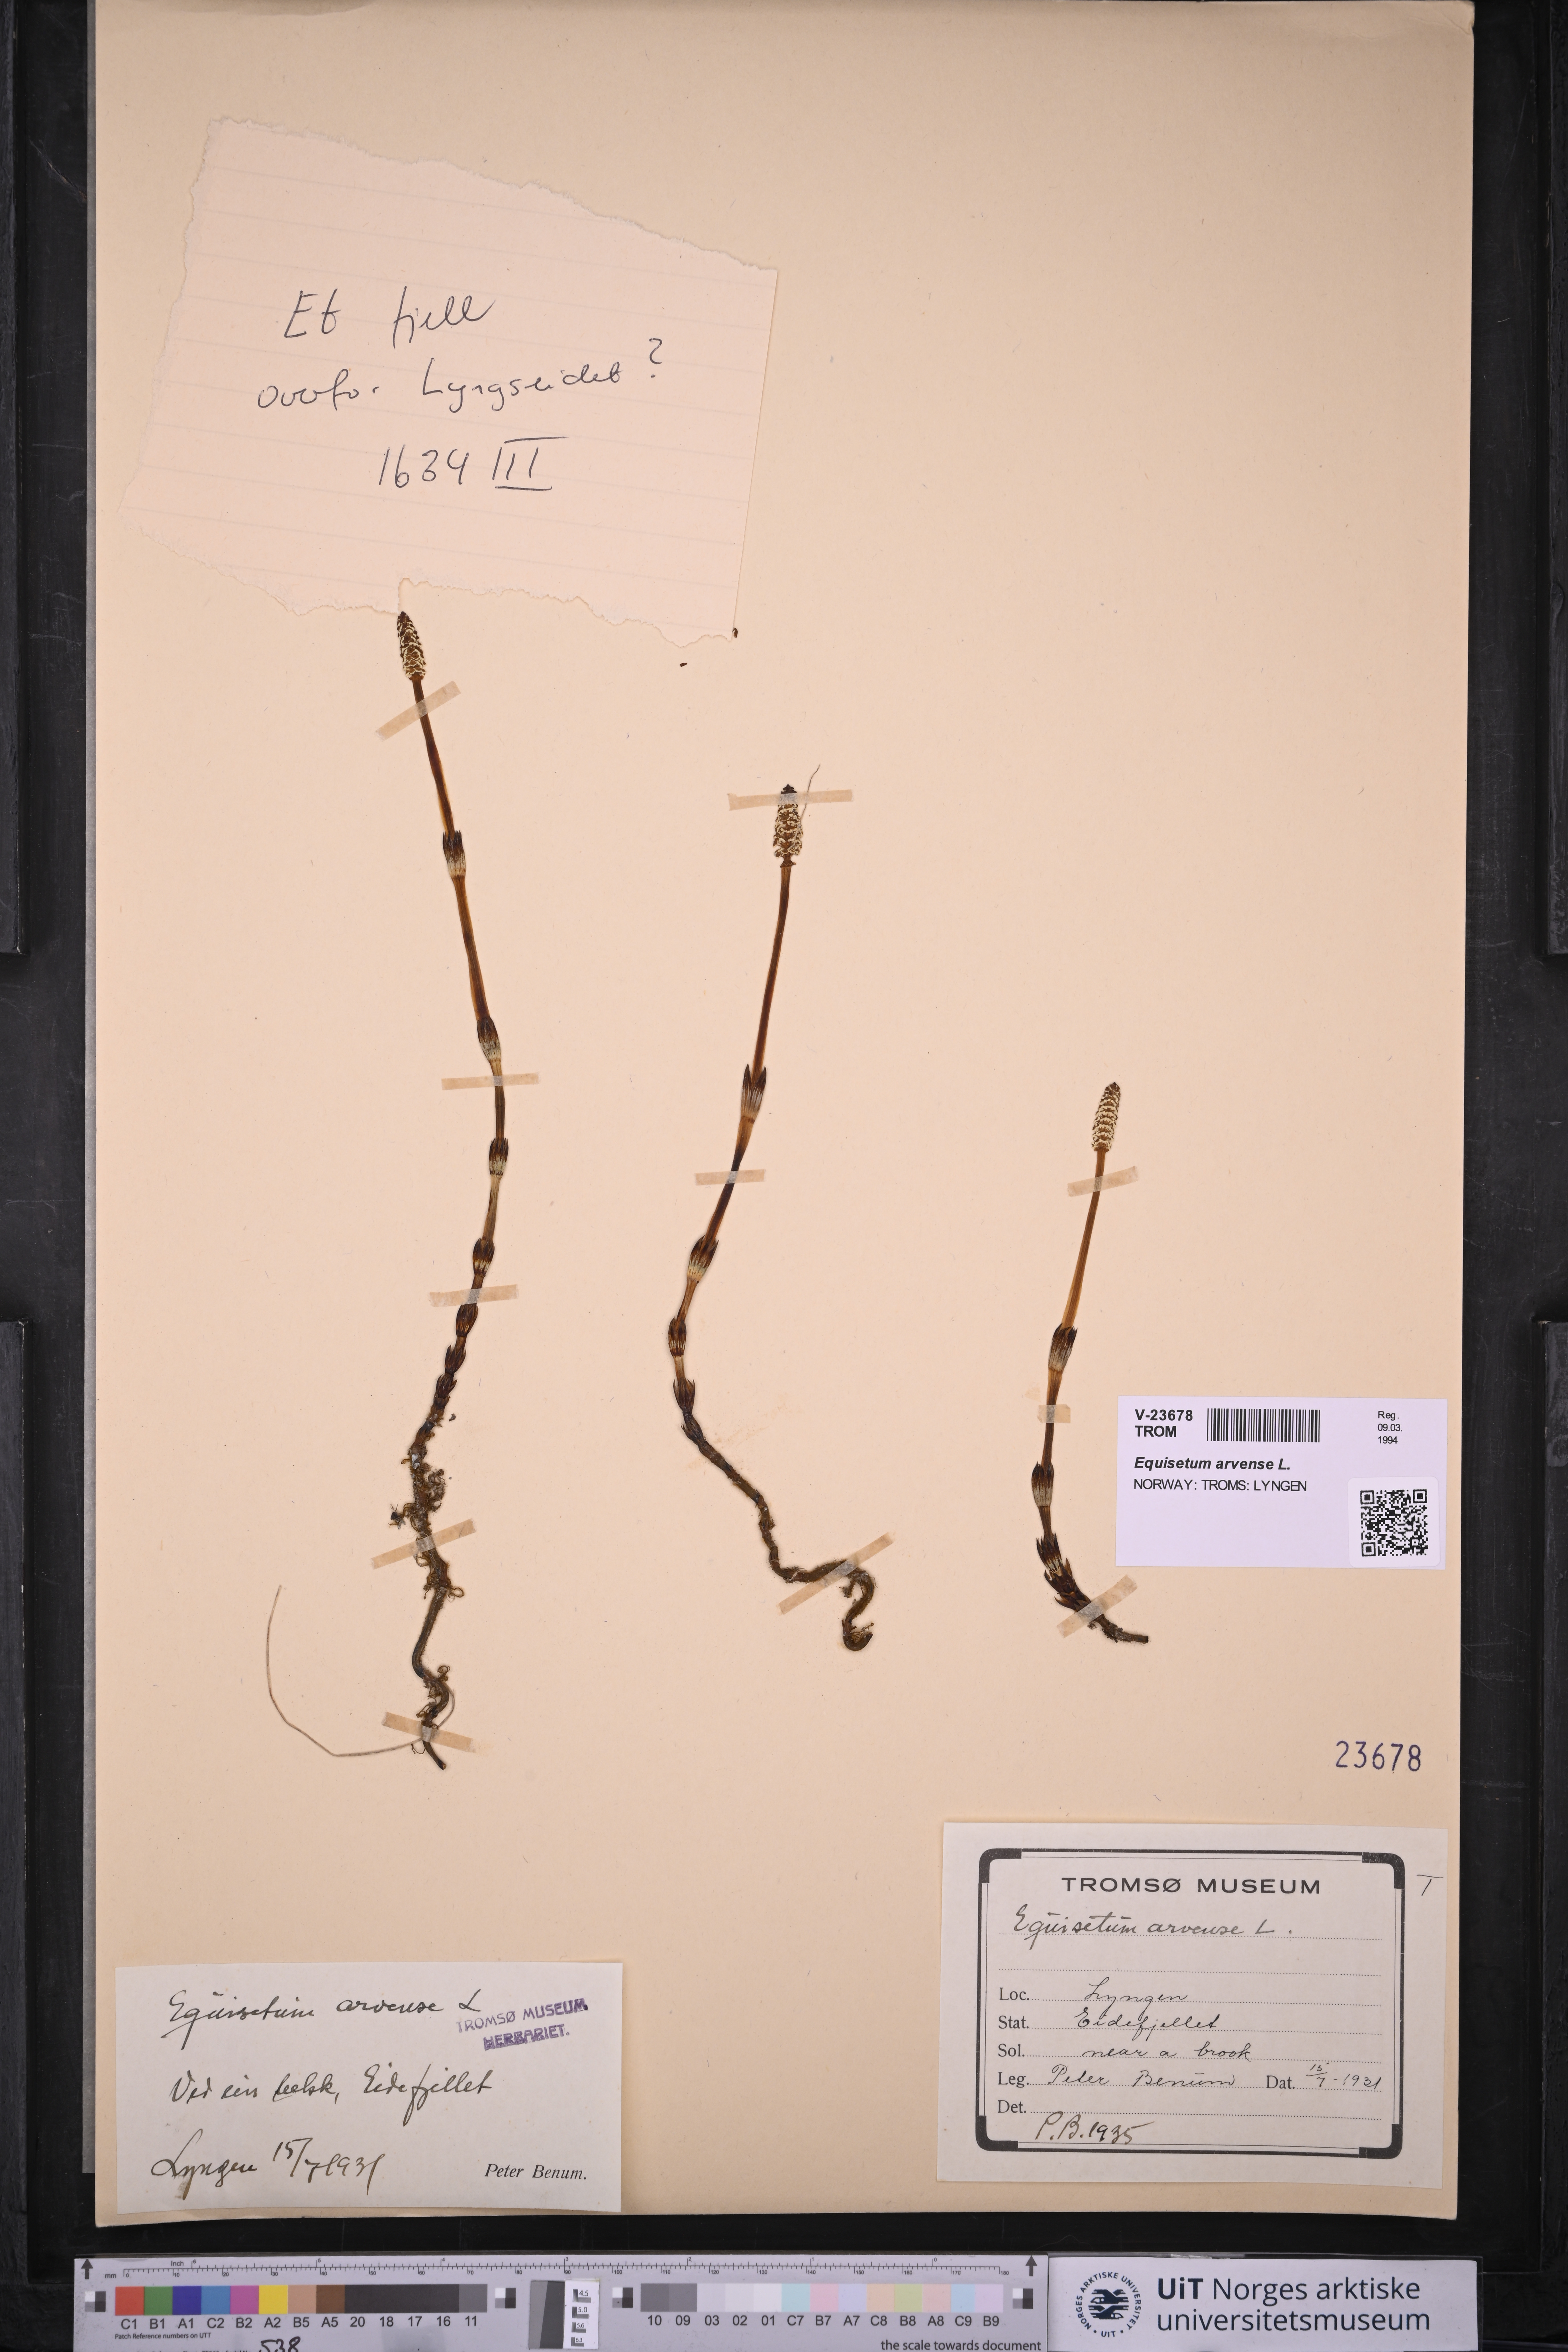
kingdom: Plantae
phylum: Tracheophyta
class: Polypodiopsida
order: Equisetales
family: Equisetaceae
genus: Equisetum
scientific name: Equisetum arvense
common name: Field horsetail
